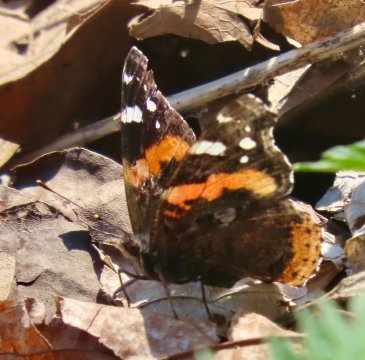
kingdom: Animalia
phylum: Arthropoda
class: Insecta
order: Lepidoptera
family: Nymphalidae
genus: Vanessa
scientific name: Vanessa atalanta
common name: Red Admiral
